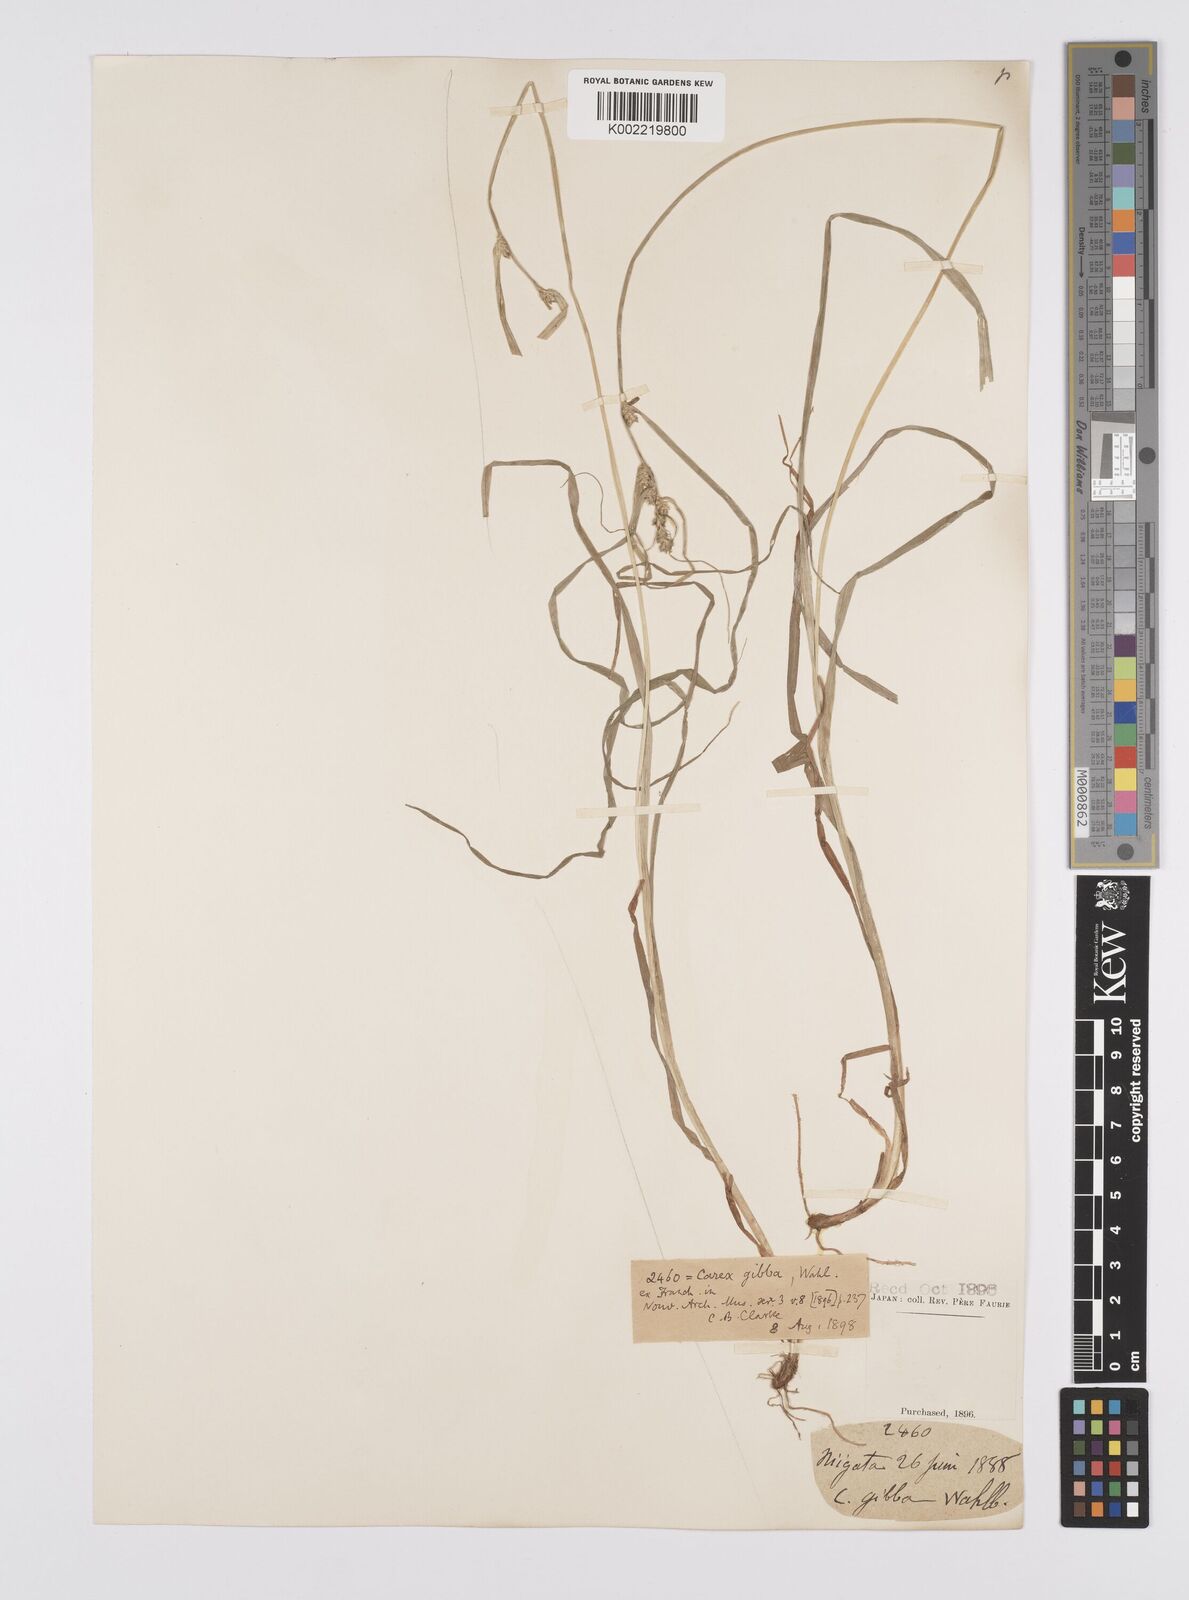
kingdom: Plantae
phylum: Tracheophyta
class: Liliopsida
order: Poales
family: Cyperaceae
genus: Carex
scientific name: Carex gibba
